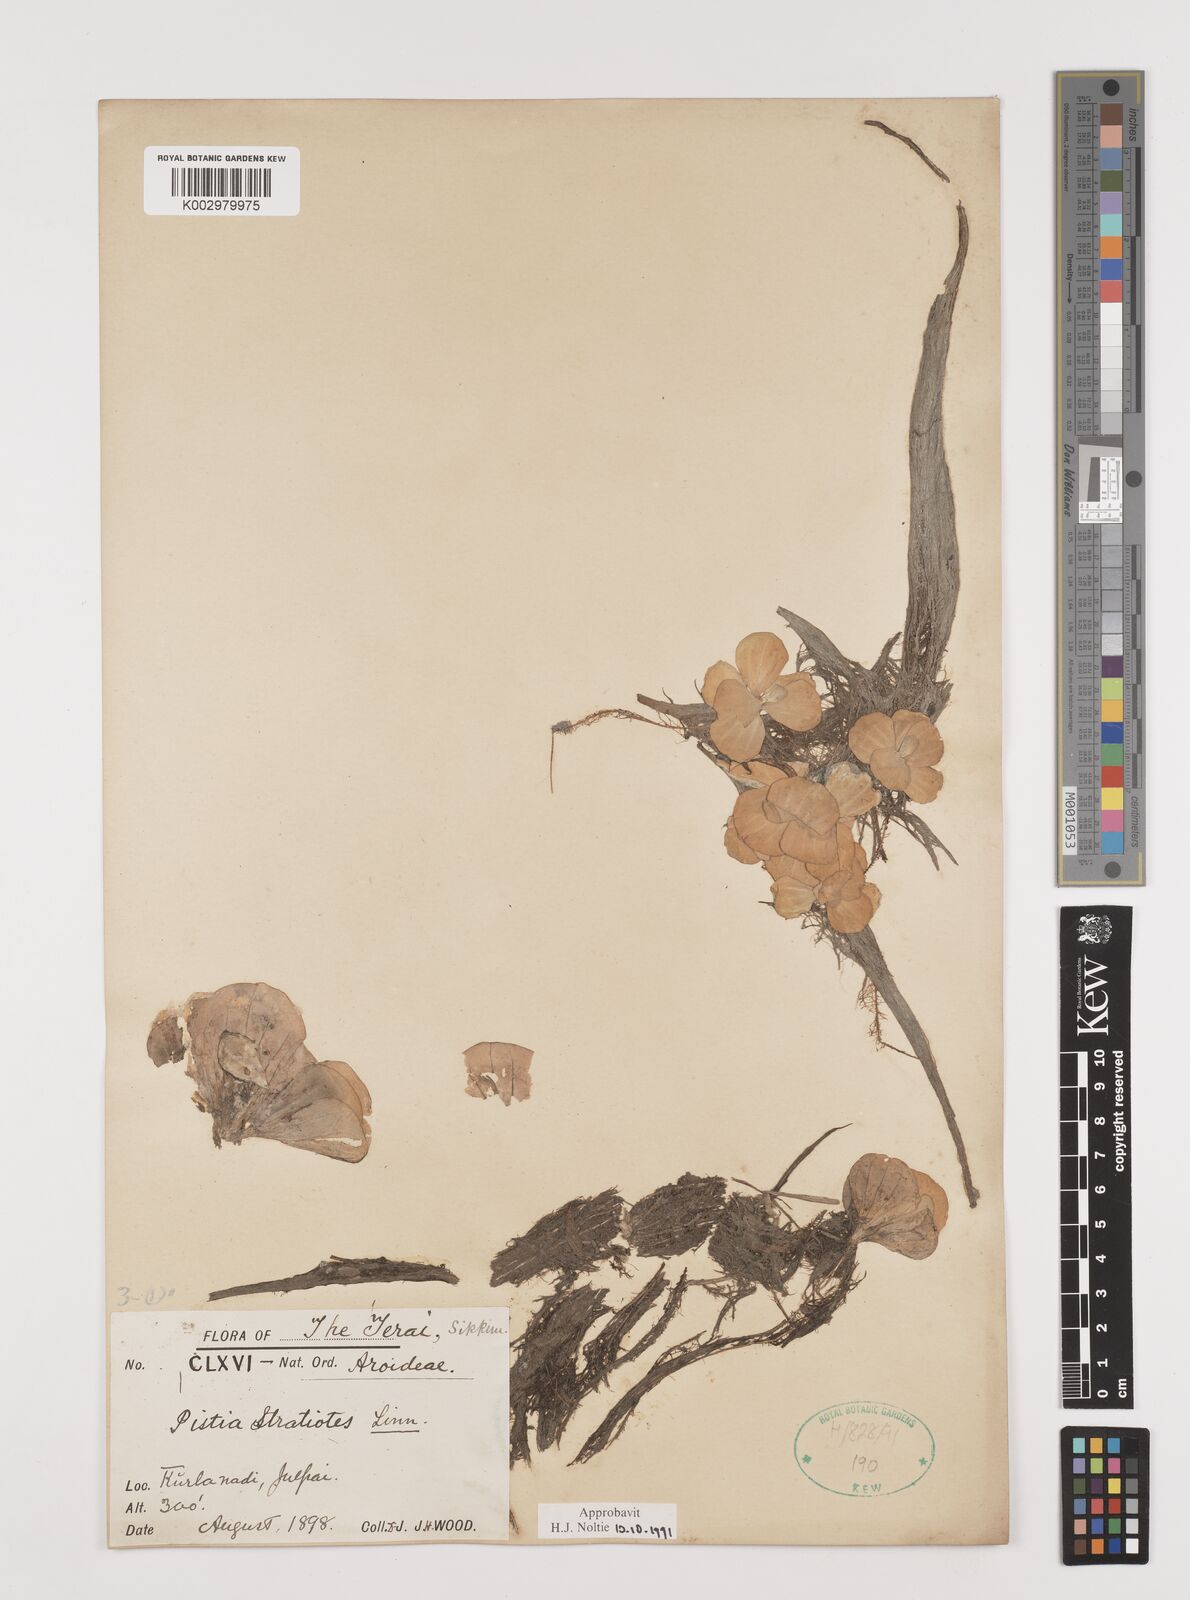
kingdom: Plantae
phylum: Tracheophyta
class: Liliopsida
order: Alismatales
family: Araceae
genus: Pistia
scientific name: Pistia stratiotes
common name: Water lettuce
